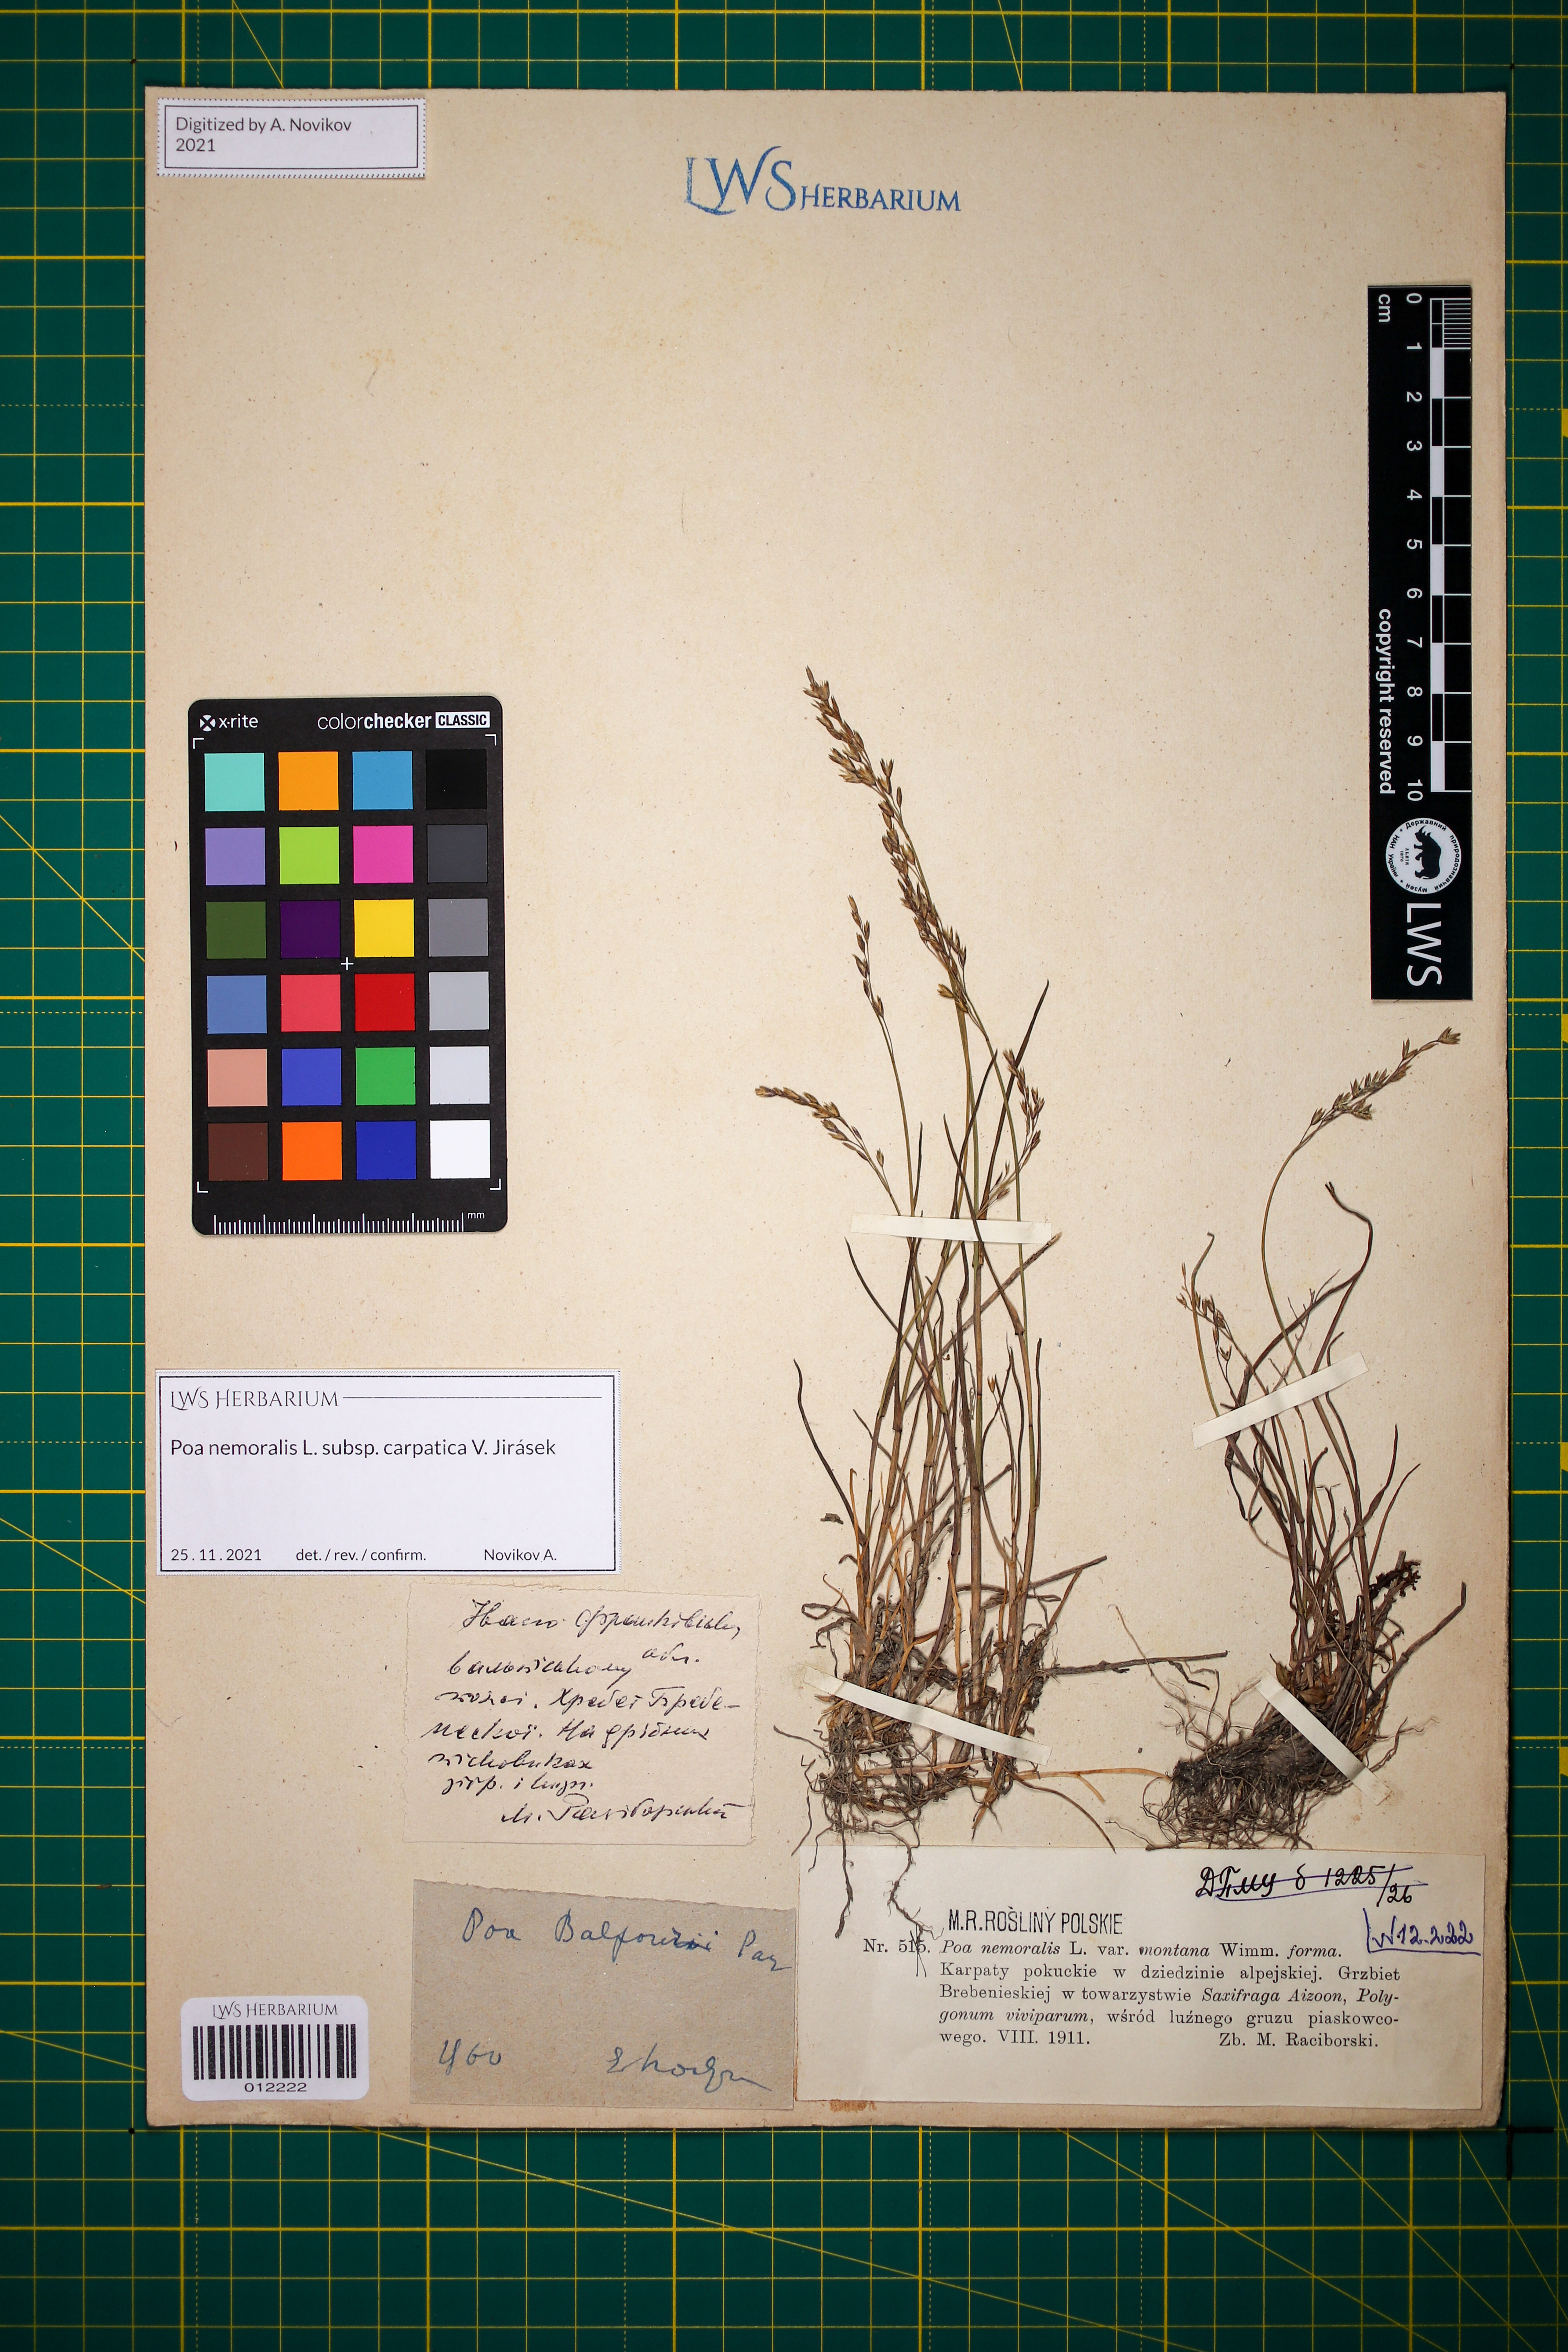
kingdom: Plantae
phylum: Tracheophyta
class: Liliopsida
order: Poales
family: Poaceae
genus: Poa
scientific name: Poa carpatica
